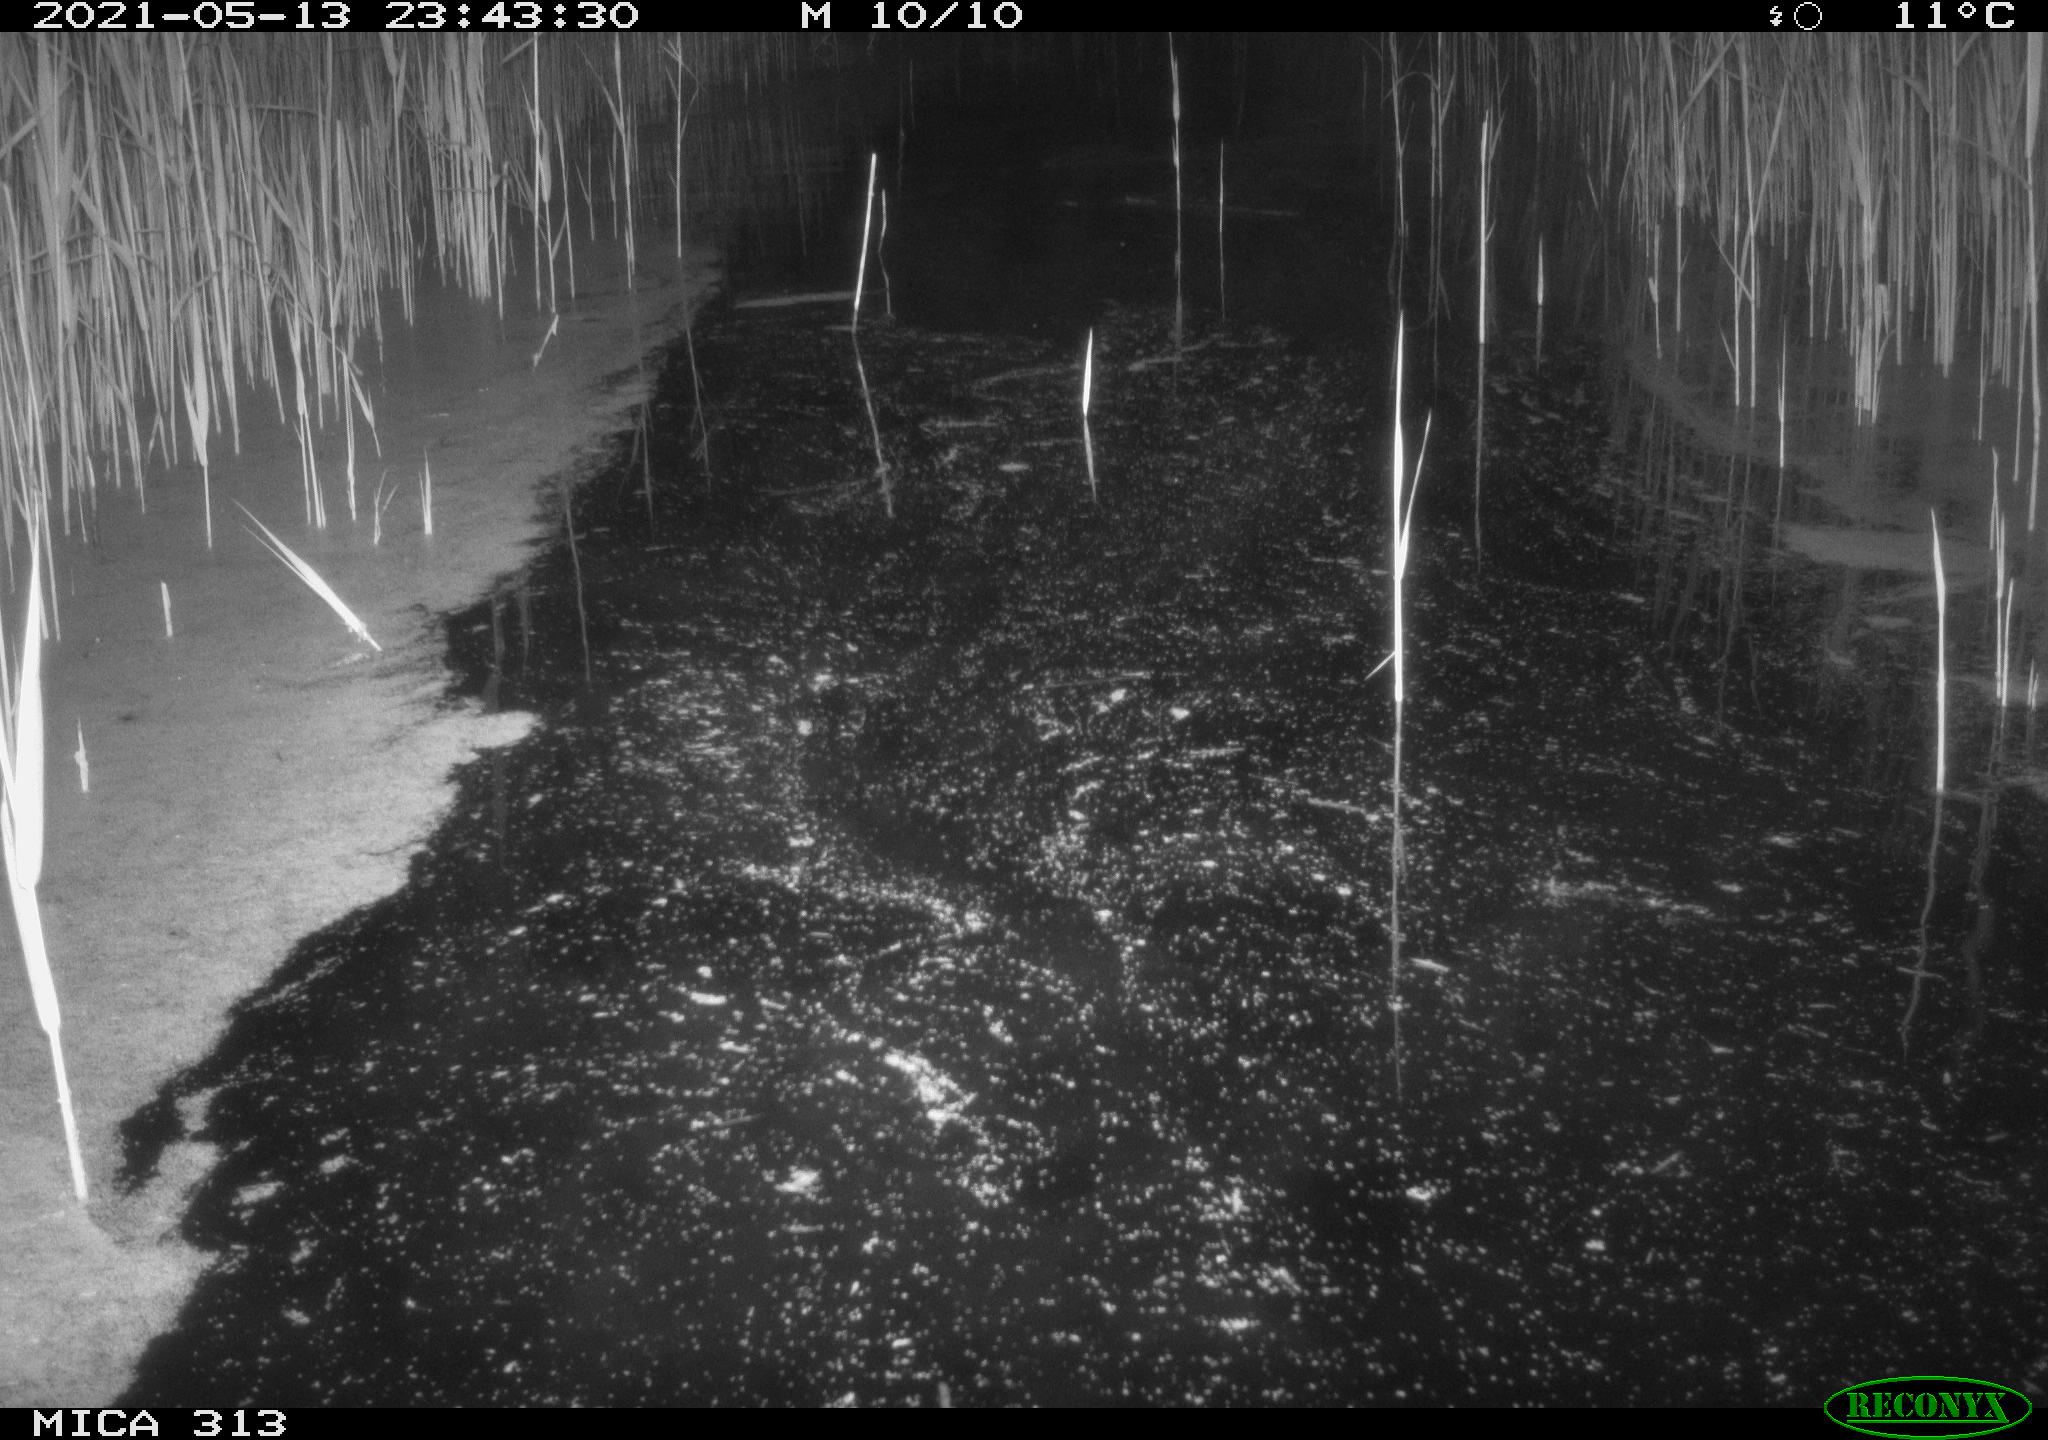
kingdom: Animalia
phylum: Chordata
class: Aves
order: Gruiformes
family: Rallidae
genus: Fulica
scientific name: Fulica atra
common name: Eurasian coot
